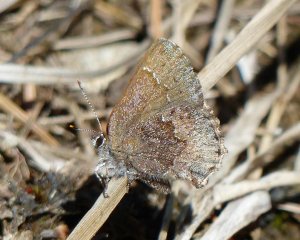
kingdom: Animalia
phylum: Arthropoda
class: Insecta
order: Lepidoptera
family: Lycaenidae
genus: Callophrys
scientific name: Callophrys polios
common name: Hoary Elfin
